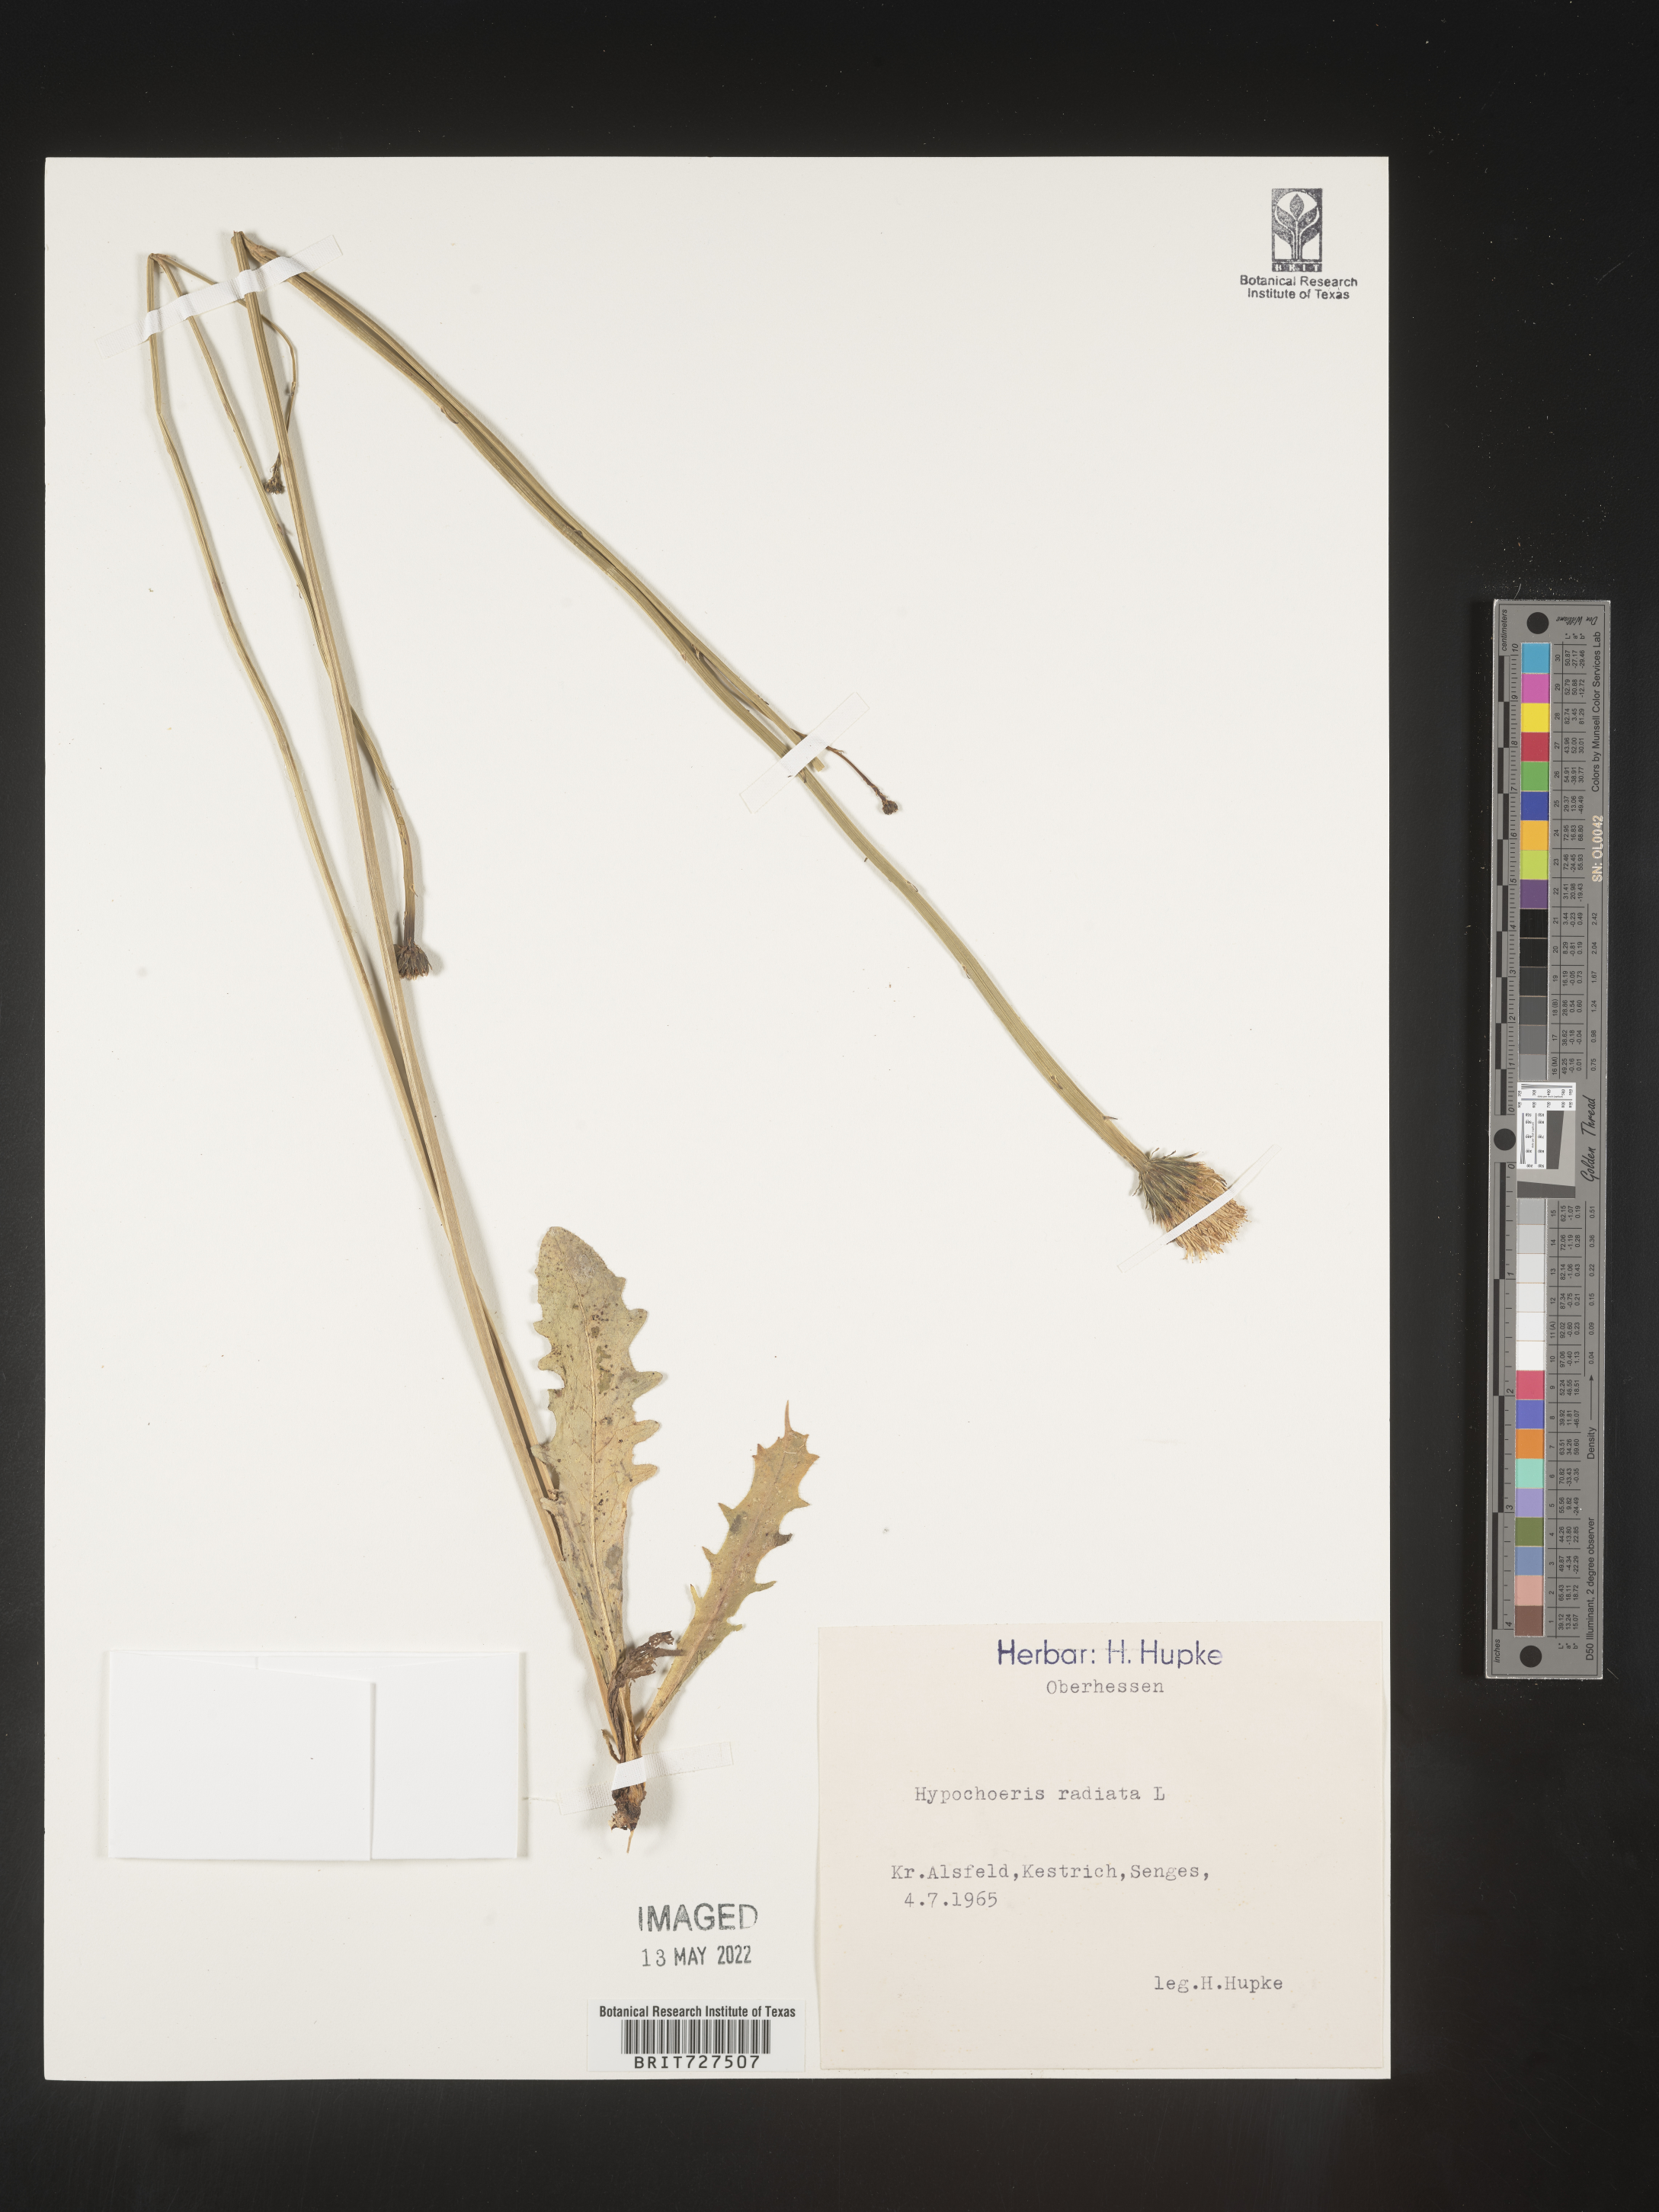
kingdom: Plantae
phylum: Tracheophyta
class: Magnoliopsida
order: Asterales
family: Asteraceae
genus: Hypochaeris
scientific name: Hypochaeris
